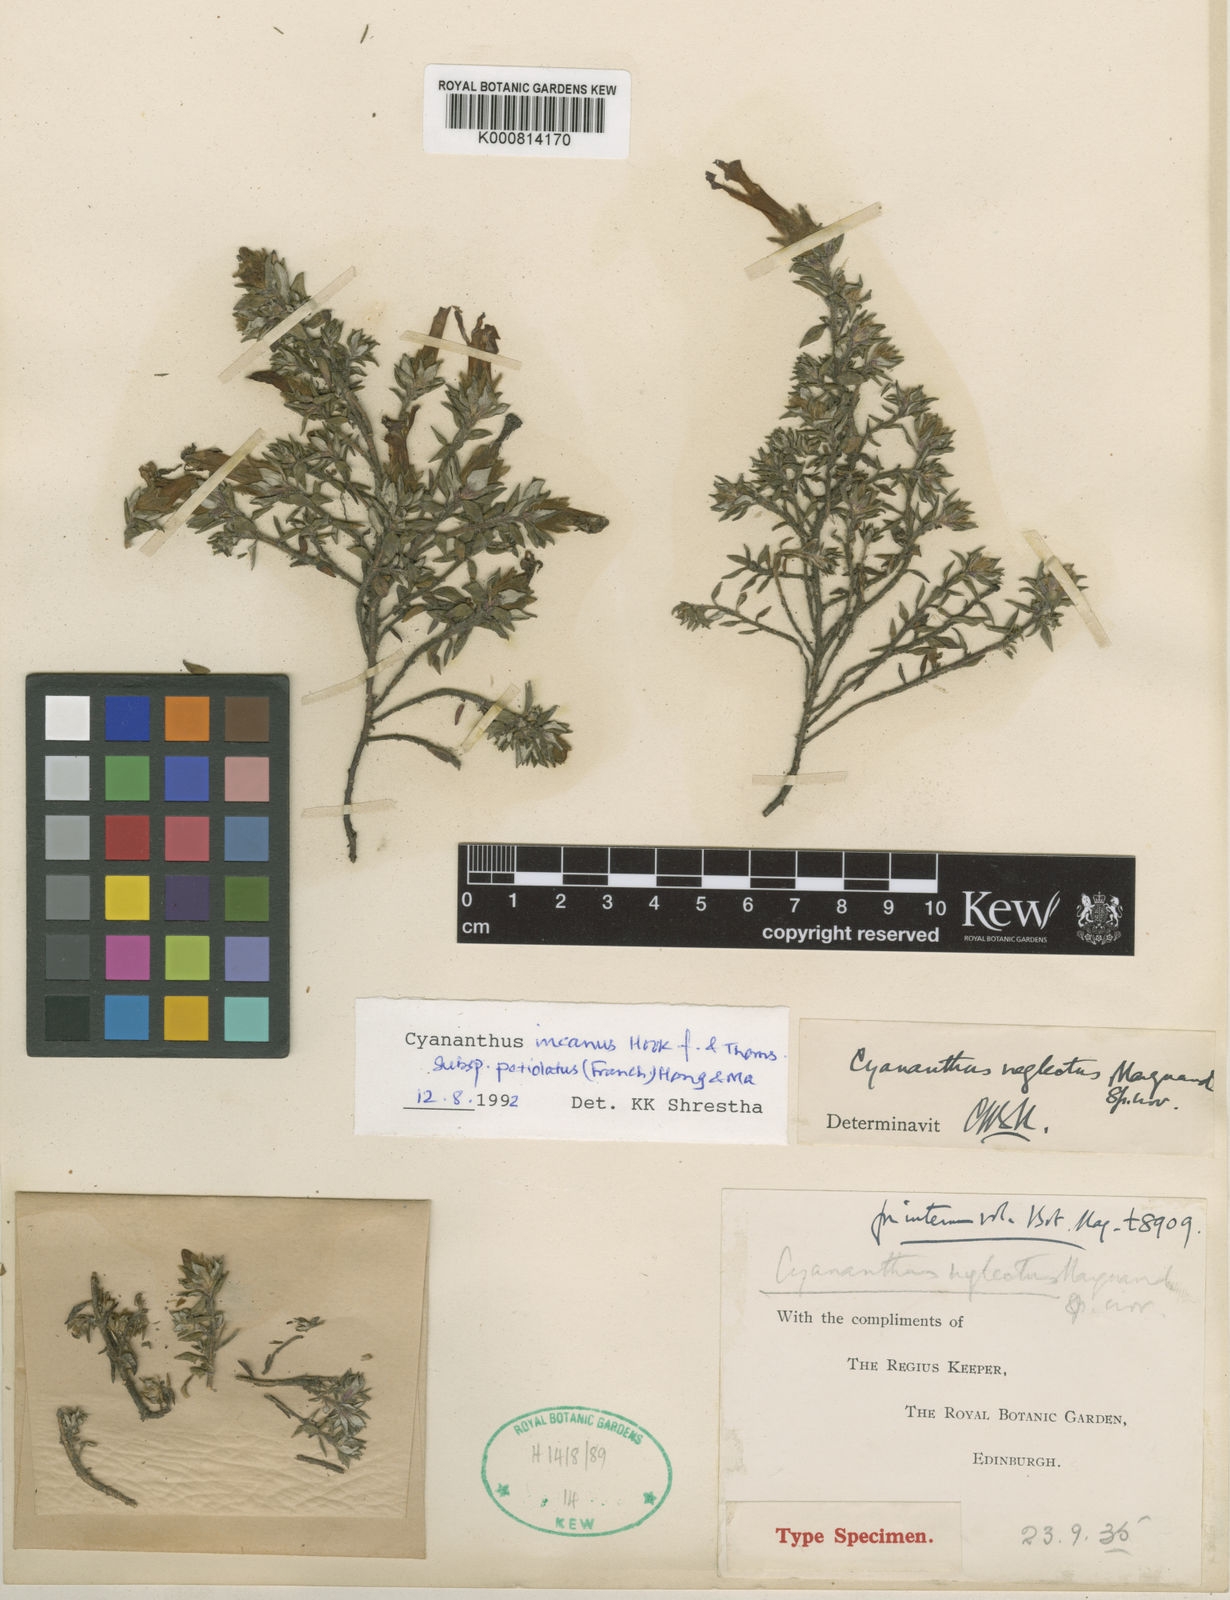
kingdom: Plantae
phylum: Tracheophyta
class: Magnoliopsida
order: Asterales
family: Campanulaceae
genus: Cyananthus
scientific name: Cyananthus incanus
